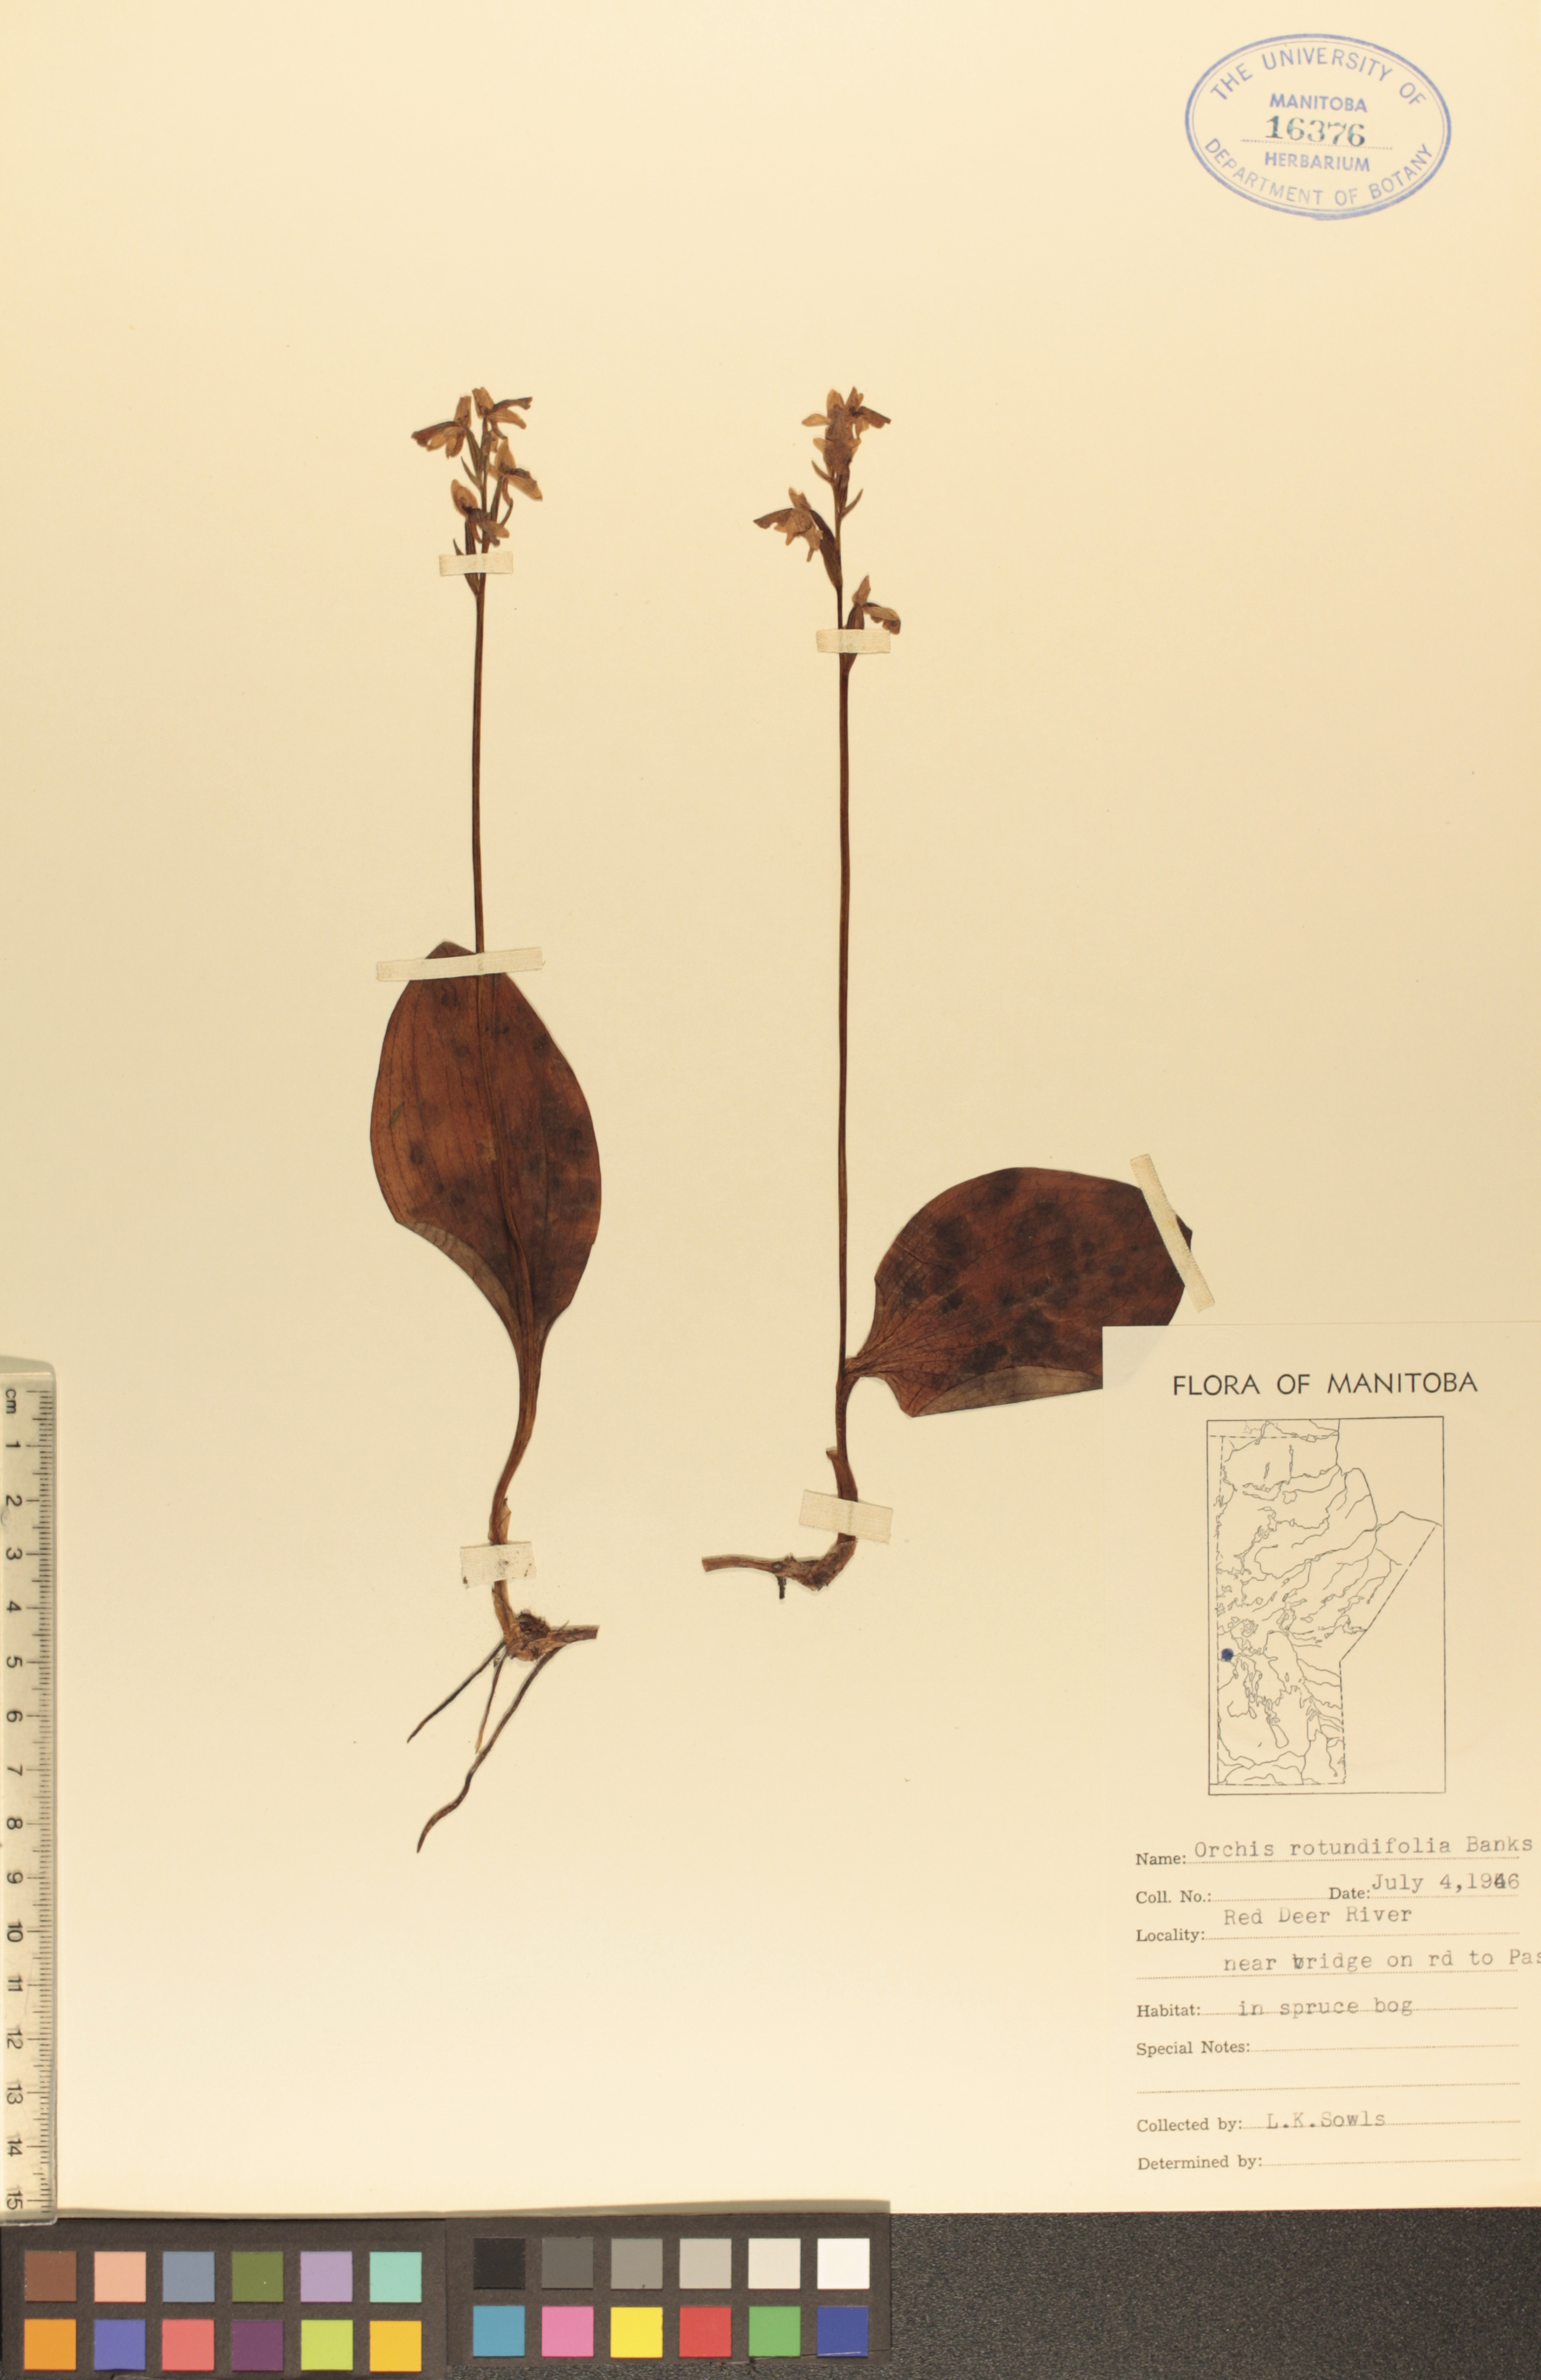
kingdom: Plantae
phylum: Tracheophyta
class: Liliopsida
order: Asparagales
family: Orchidaceae
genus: Galearis
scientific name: Galearis rotundifolia
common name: One-leaved orchis
